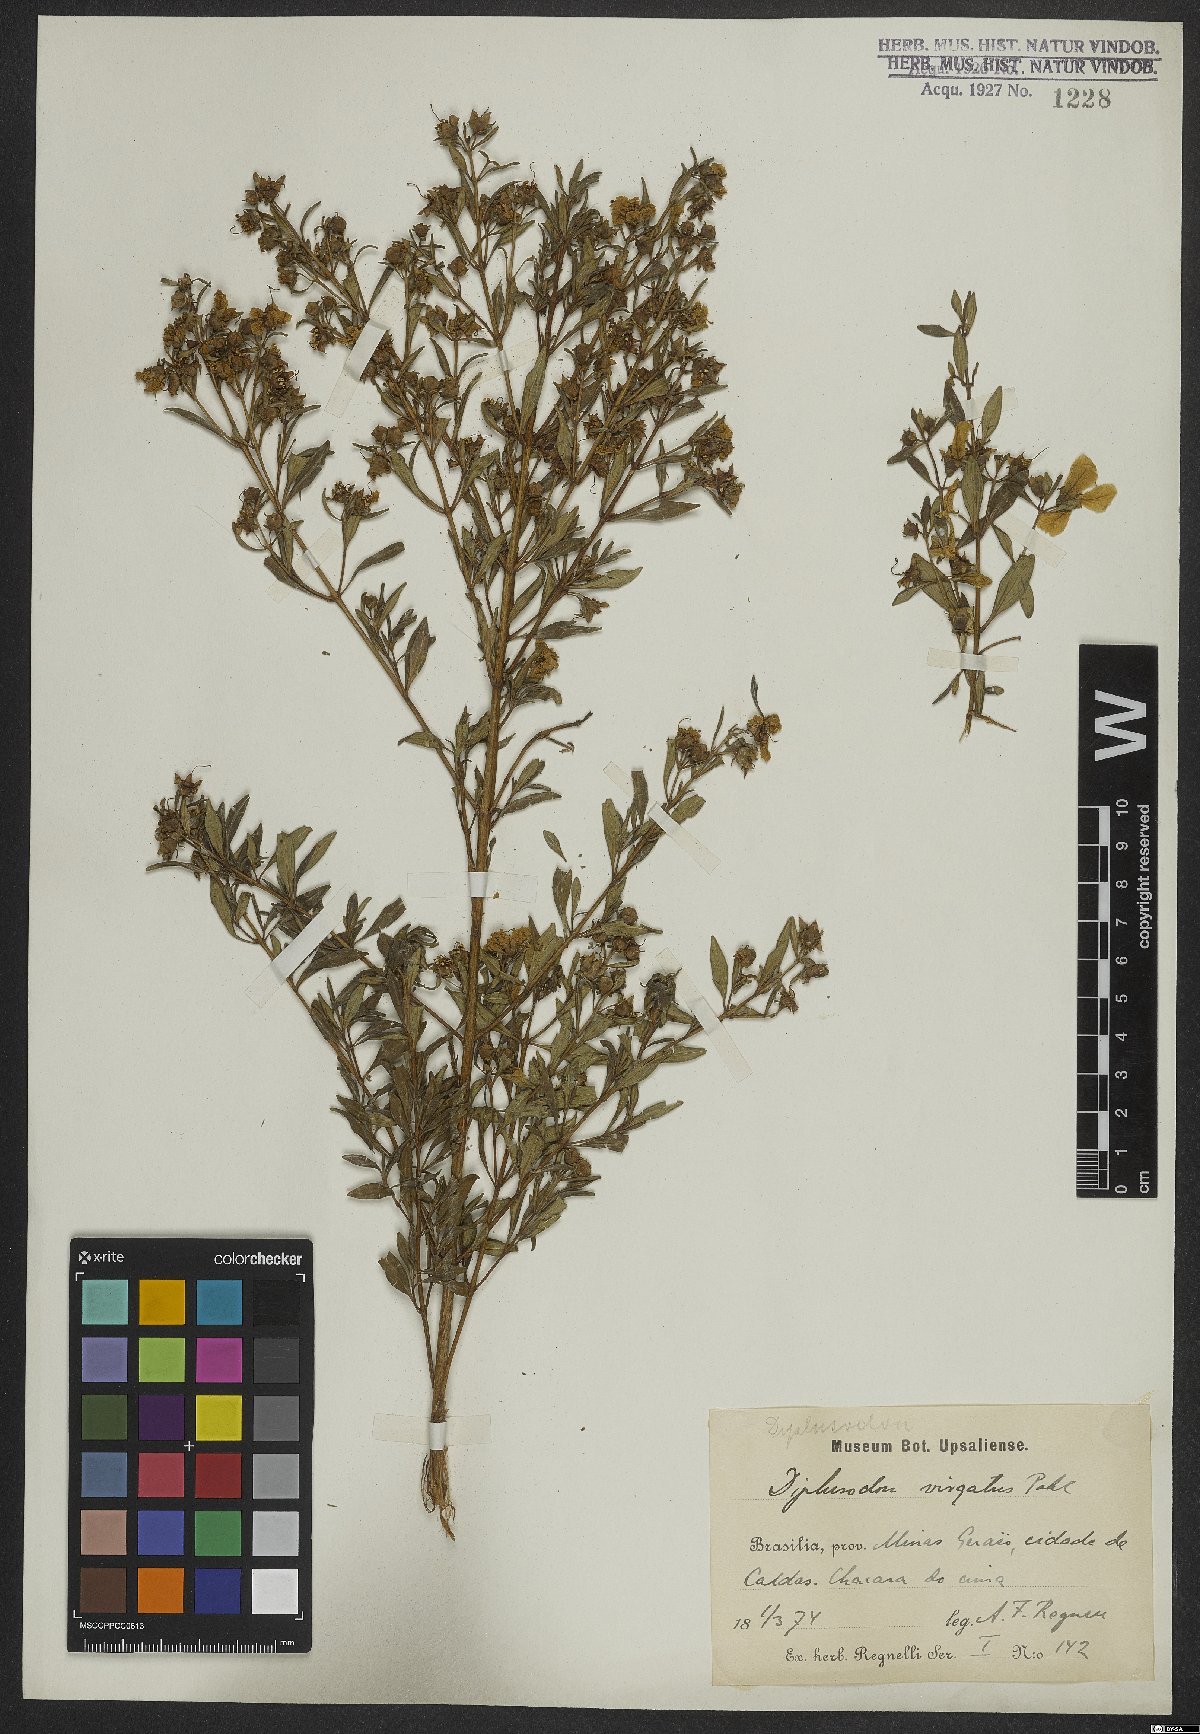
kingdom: Plantae
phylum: Tracheophyta
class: Magnoliopsida
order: Myrtales
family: Lythraceae
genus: Diplusodon
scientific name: Diplusodon virgatus
